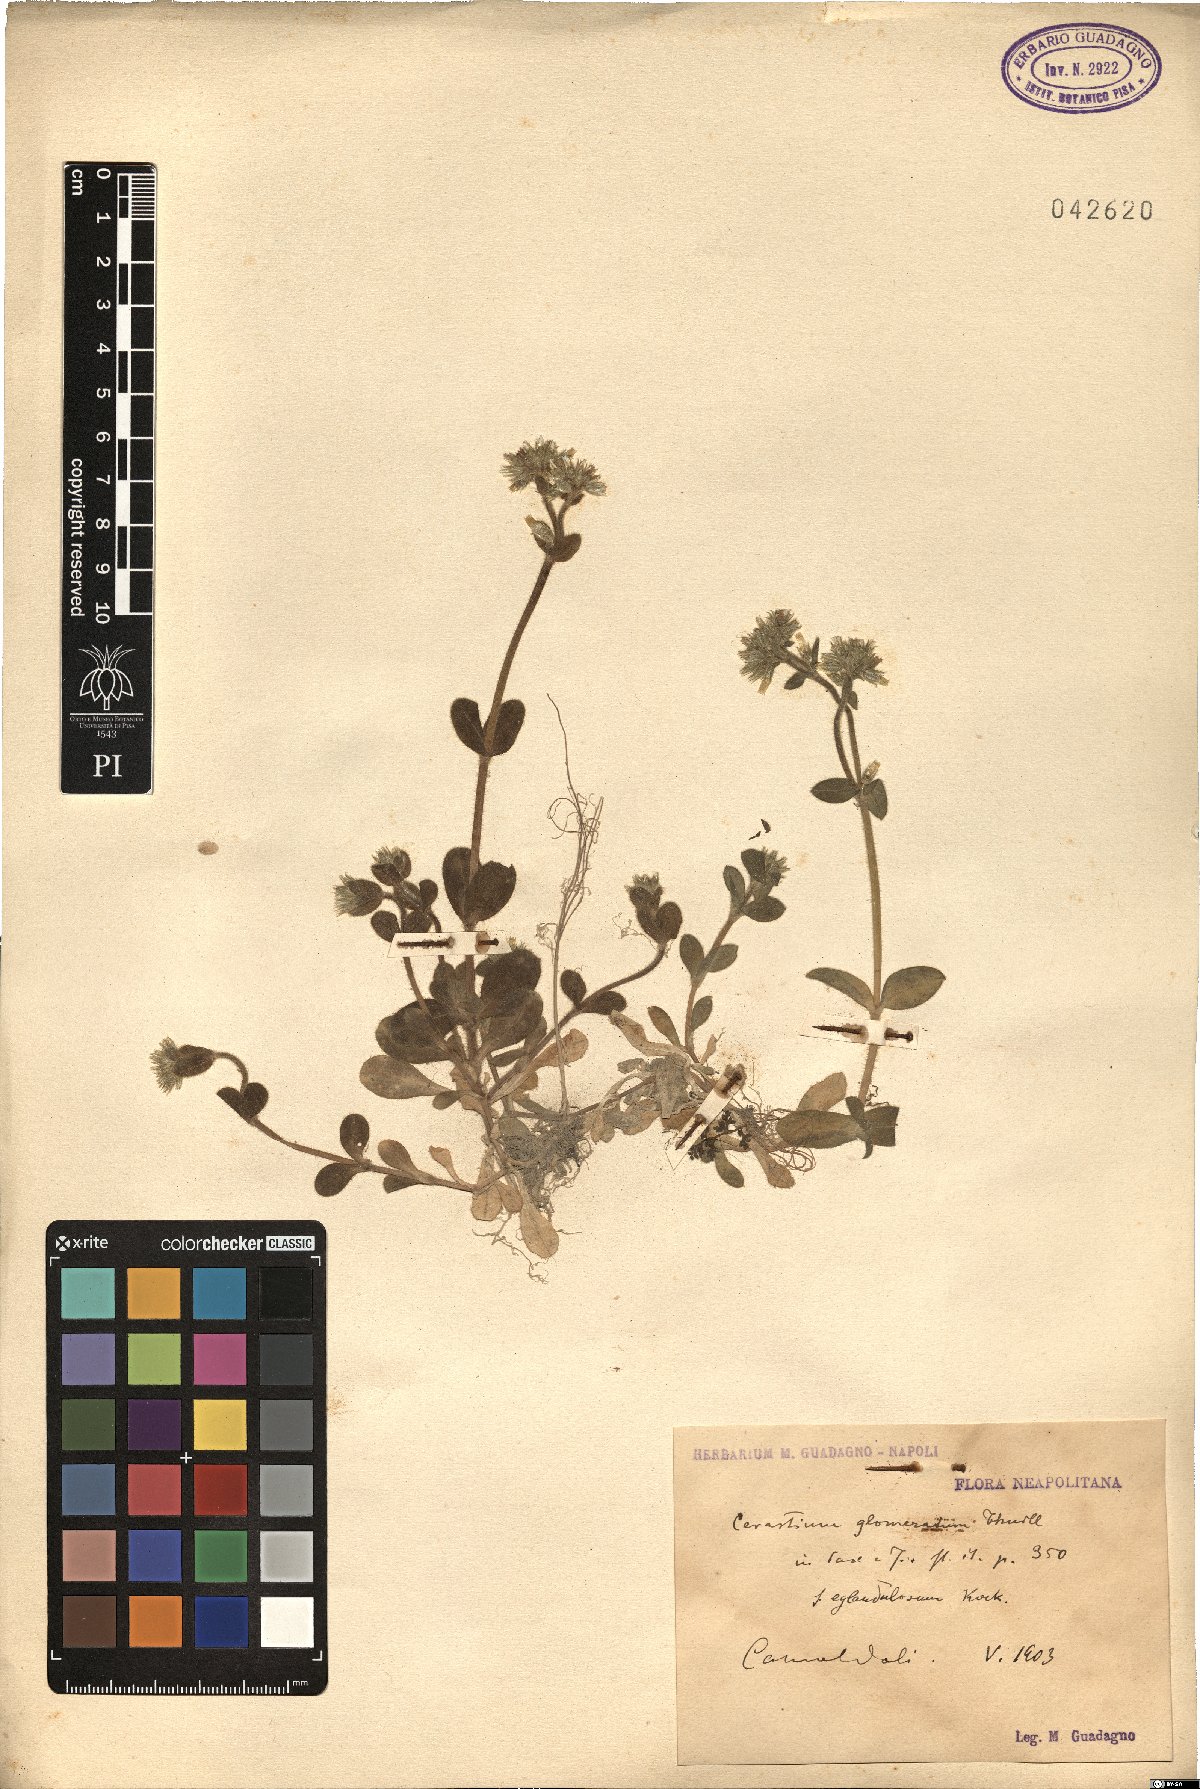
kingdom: Plantae
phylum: Tracheophyta
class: Magnoliopsida
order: Caryophyllales
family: Caryophyllaceae
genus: Cerastium
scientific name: Cerastium glomeratum
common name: Sticky chickweed
